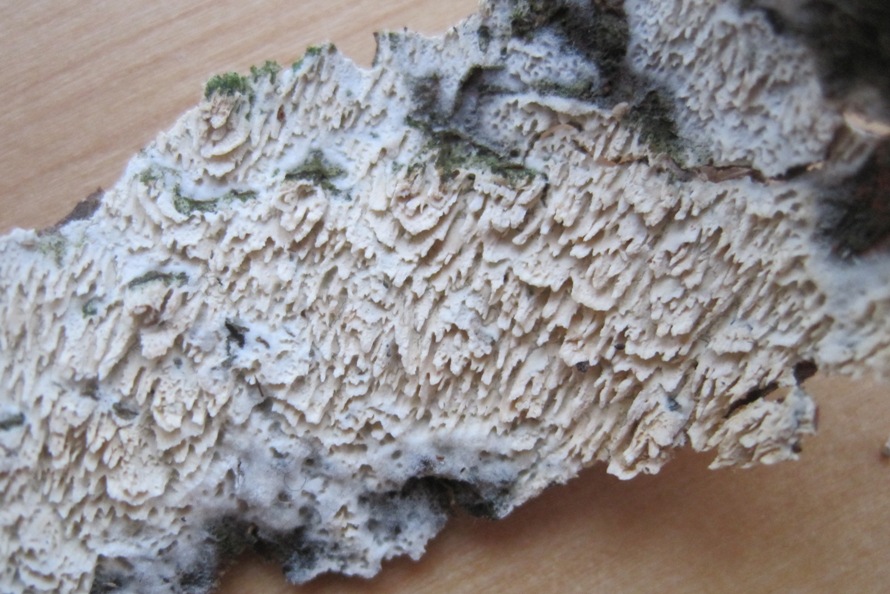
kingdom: Fungi
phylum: Basidiomycota
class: Agaricomycetes
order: Hymenochaetales
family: Schizoporaceae
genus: Schizopora
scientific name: Schizopora paradoxa
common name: hvid tandsvamp
